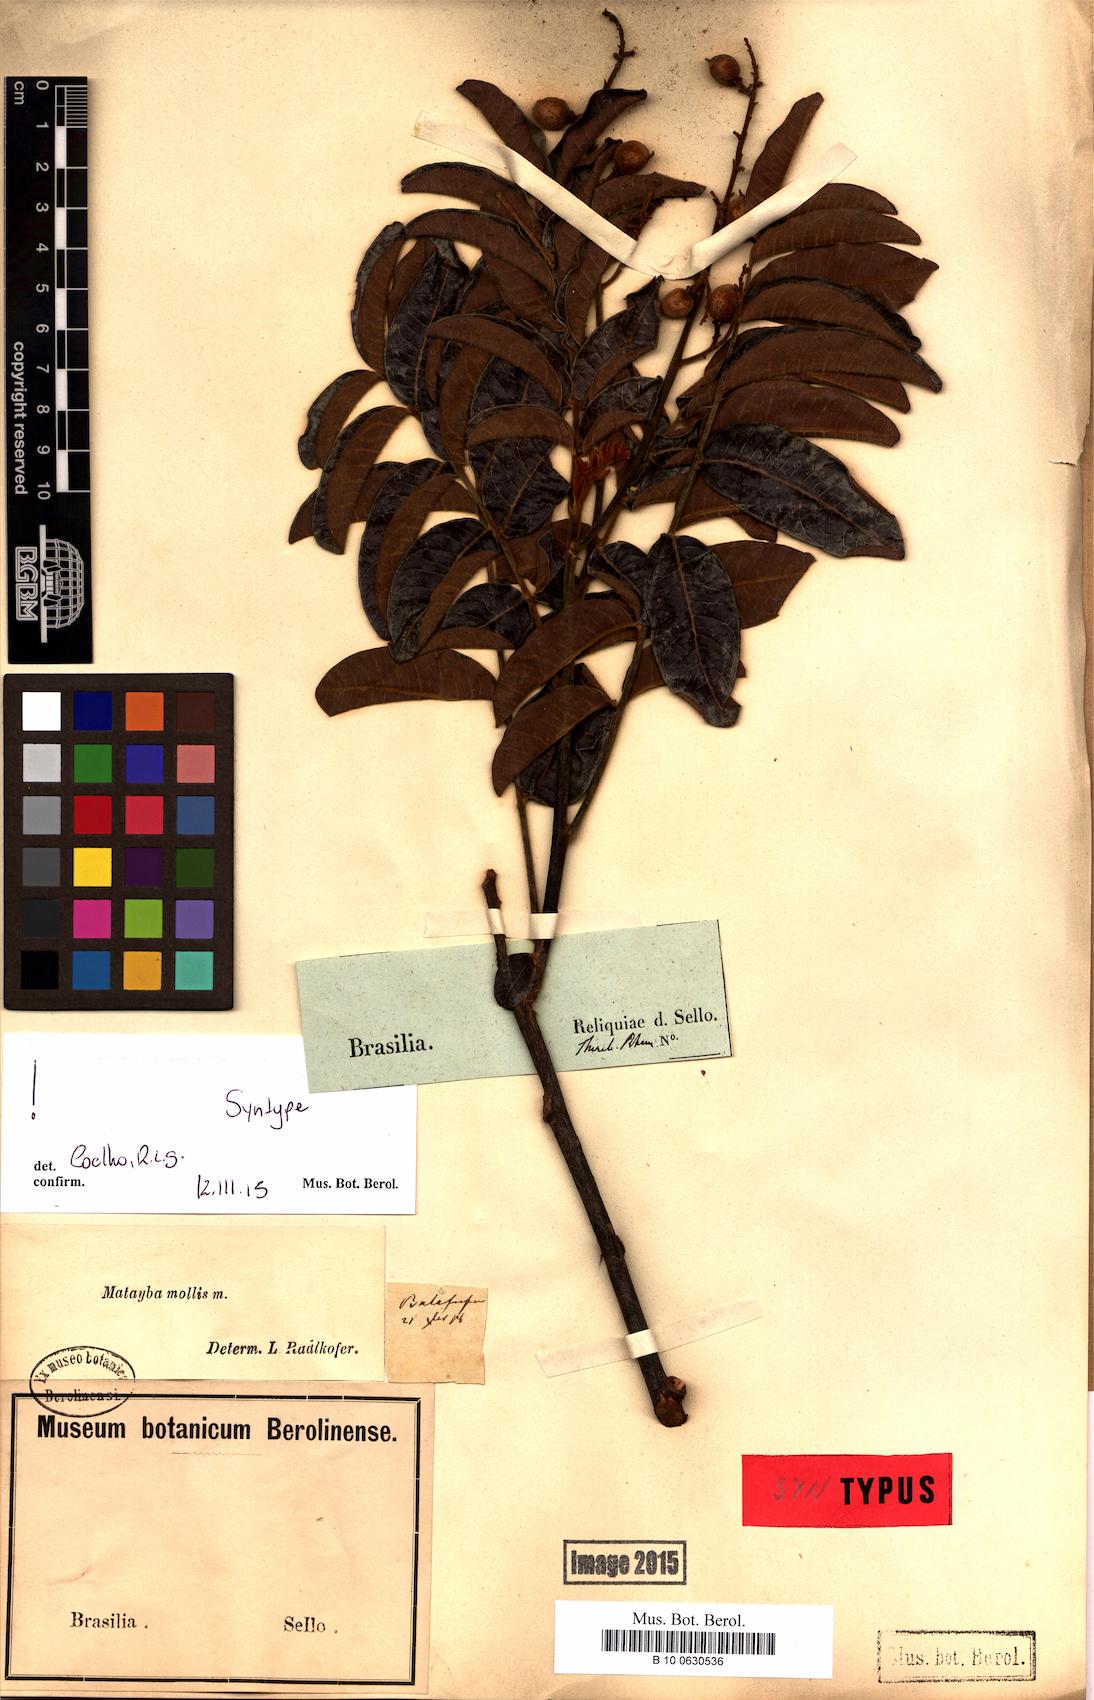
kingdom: Plantae
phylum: Tracheophyta
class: Magnoliopsida
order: Sapindales
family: Sapindaceae
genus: Matayba
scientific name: Matayba mollis
